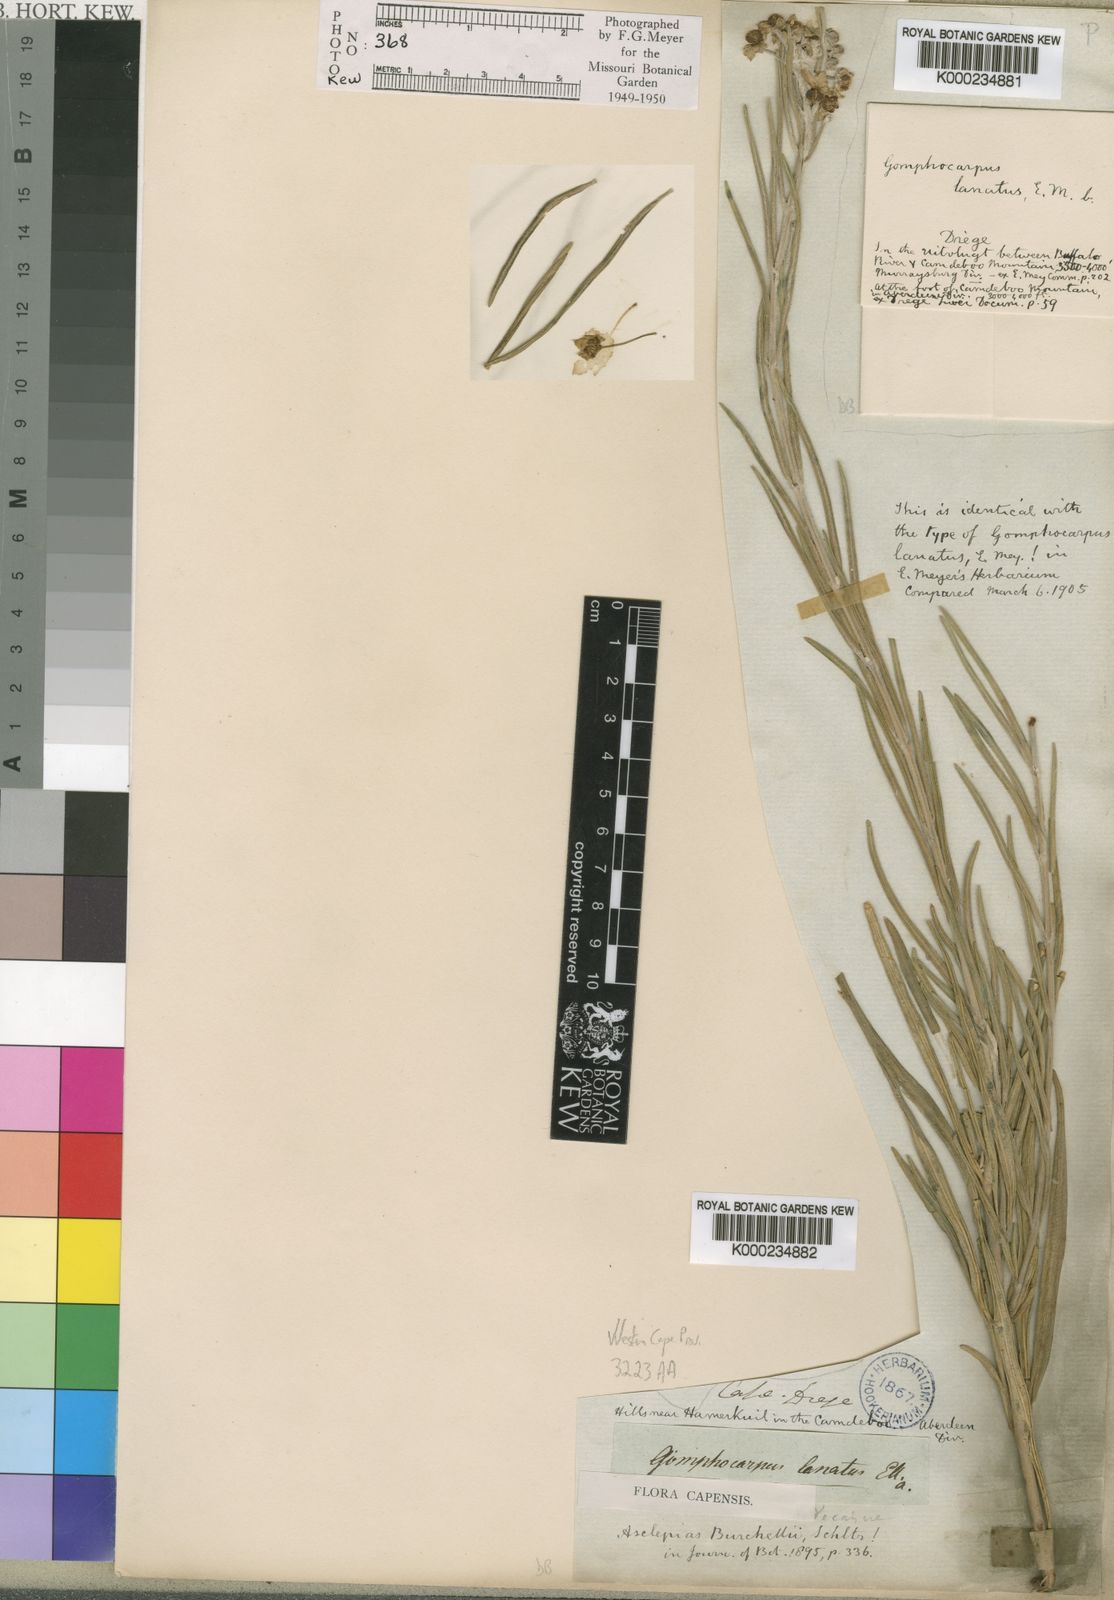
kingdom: Plantae
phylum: Tracheophyta
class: Magnoliopsida
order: Gentianales
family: Apocynaceae
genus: Gomphocarpus
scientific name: Gomphocarpus tomentosus
